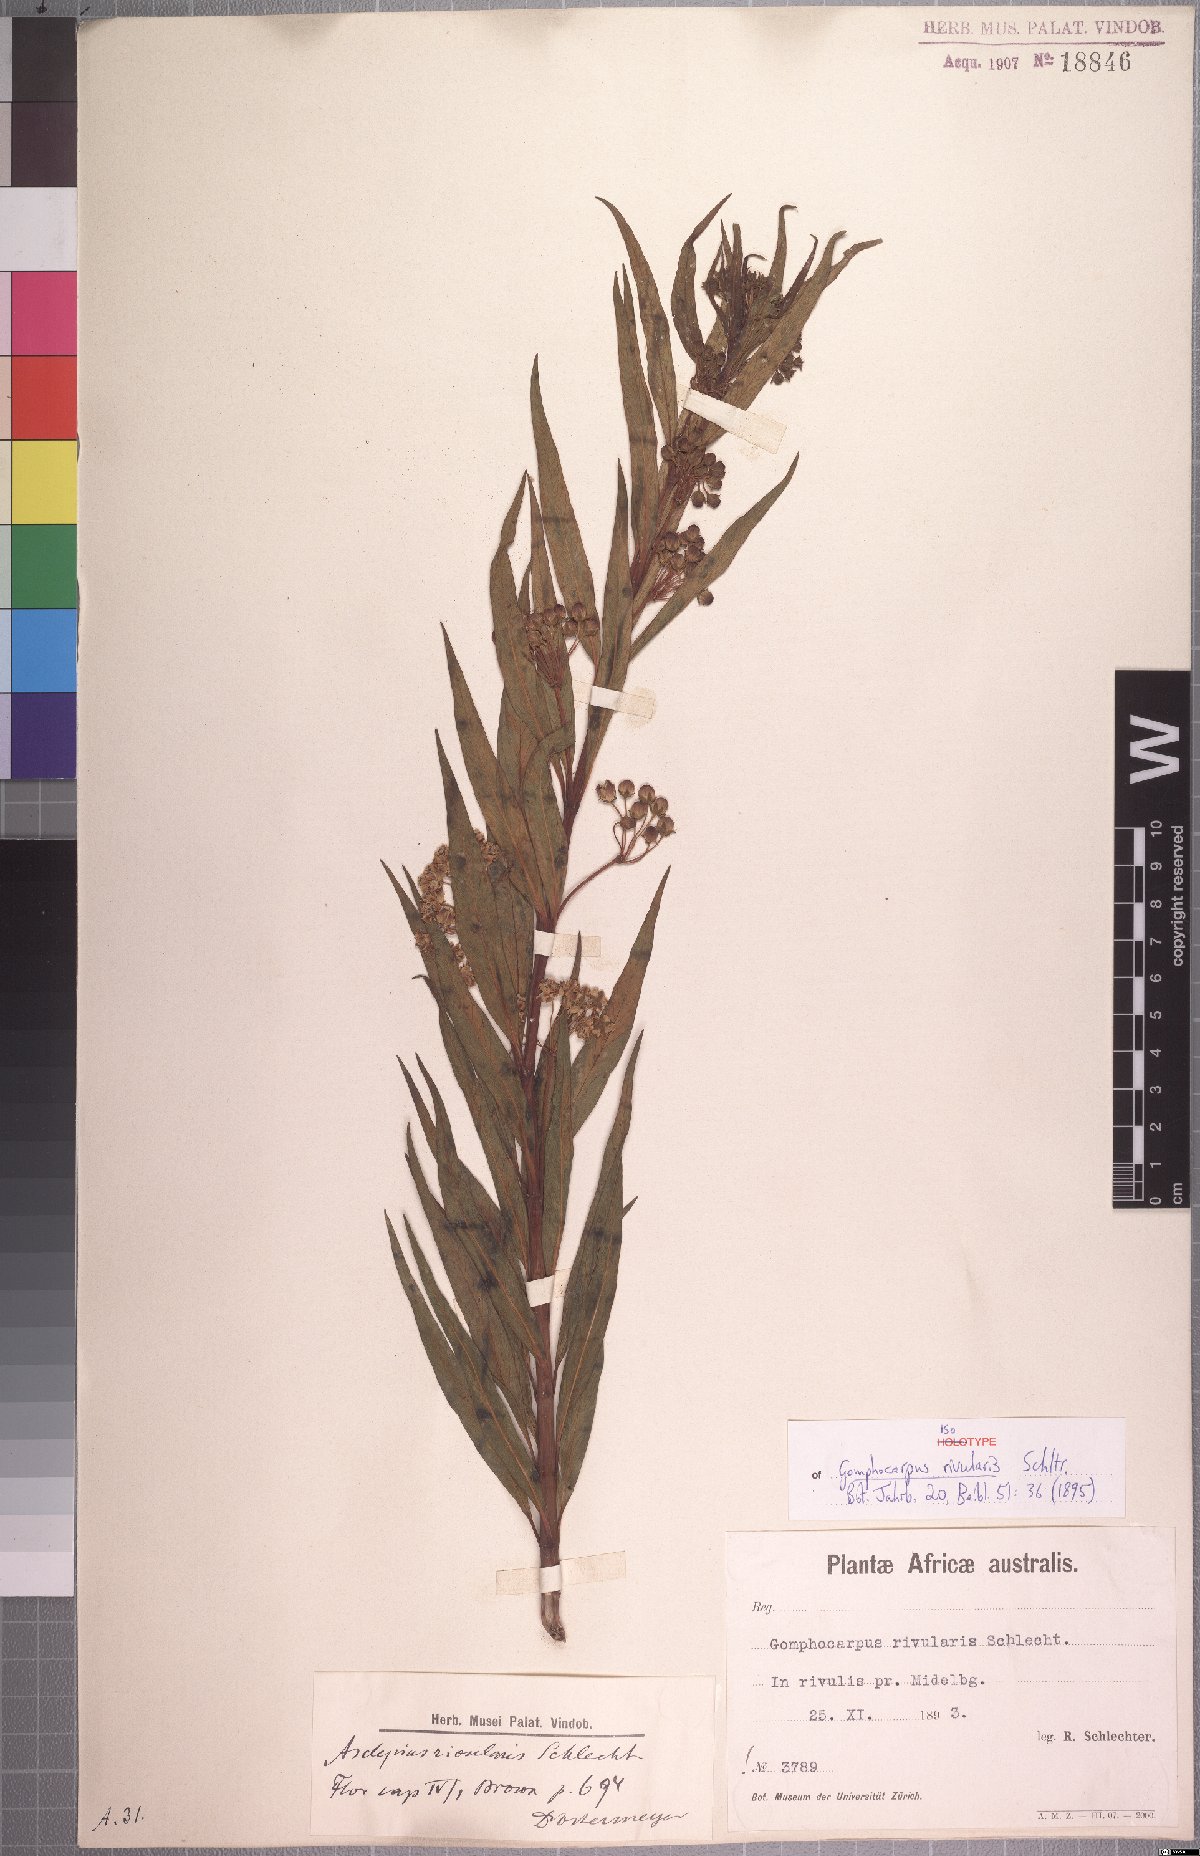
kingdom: Plantae
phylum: Tracheophyta
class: Magnoliopsida
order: Gentianales
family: Apocynaceae
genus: Gomphocarpus
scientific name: Gomphocarpus rivularis
